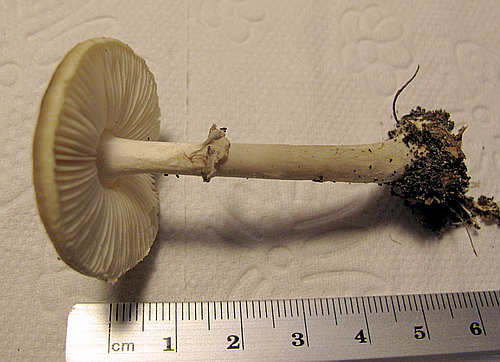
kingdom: Fungi
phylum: Basidiomycota
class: Agaricomycetes
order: Agaricales
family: Amanitaceae
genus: Amanita
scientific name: Amanita porphyria
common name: porfyr-fluesvamp
